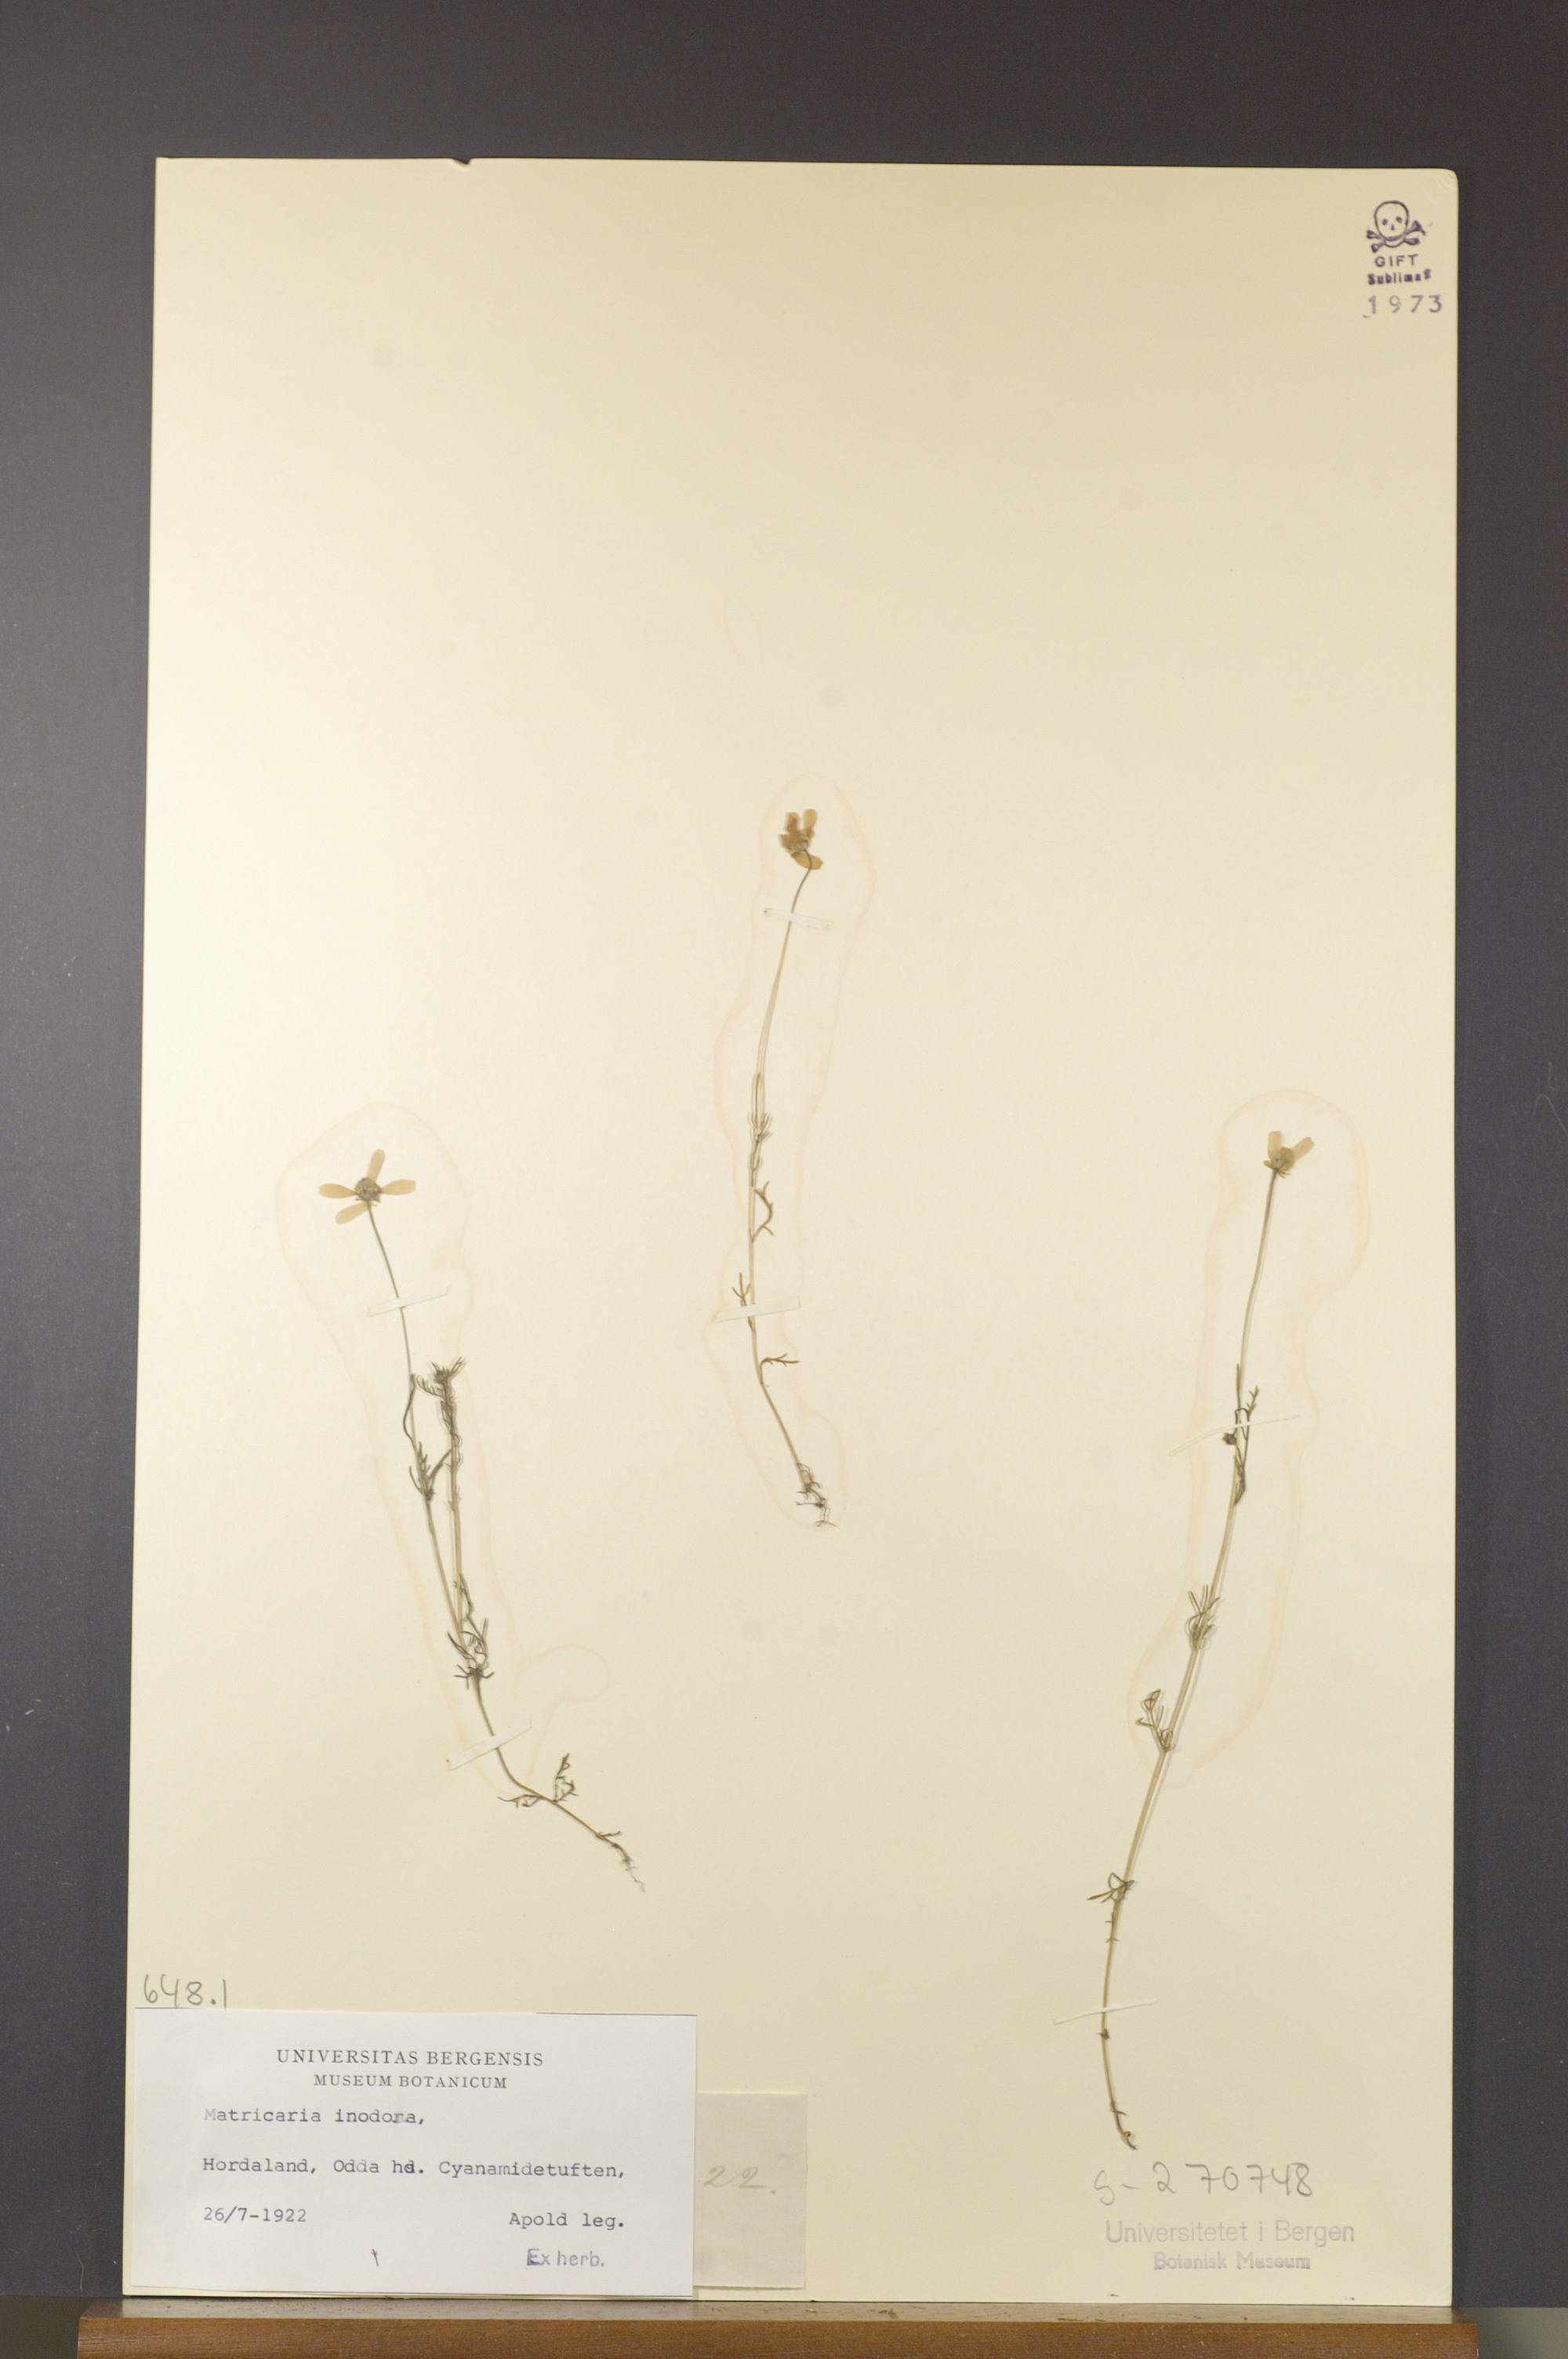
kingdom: Plantae
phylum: Tracheophyta
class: Magnoliopsida
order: Asterales
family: Asteraceae
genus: Tripleurospermum
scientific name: Tripleurospermum inodorum
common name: Scentless mayweed
